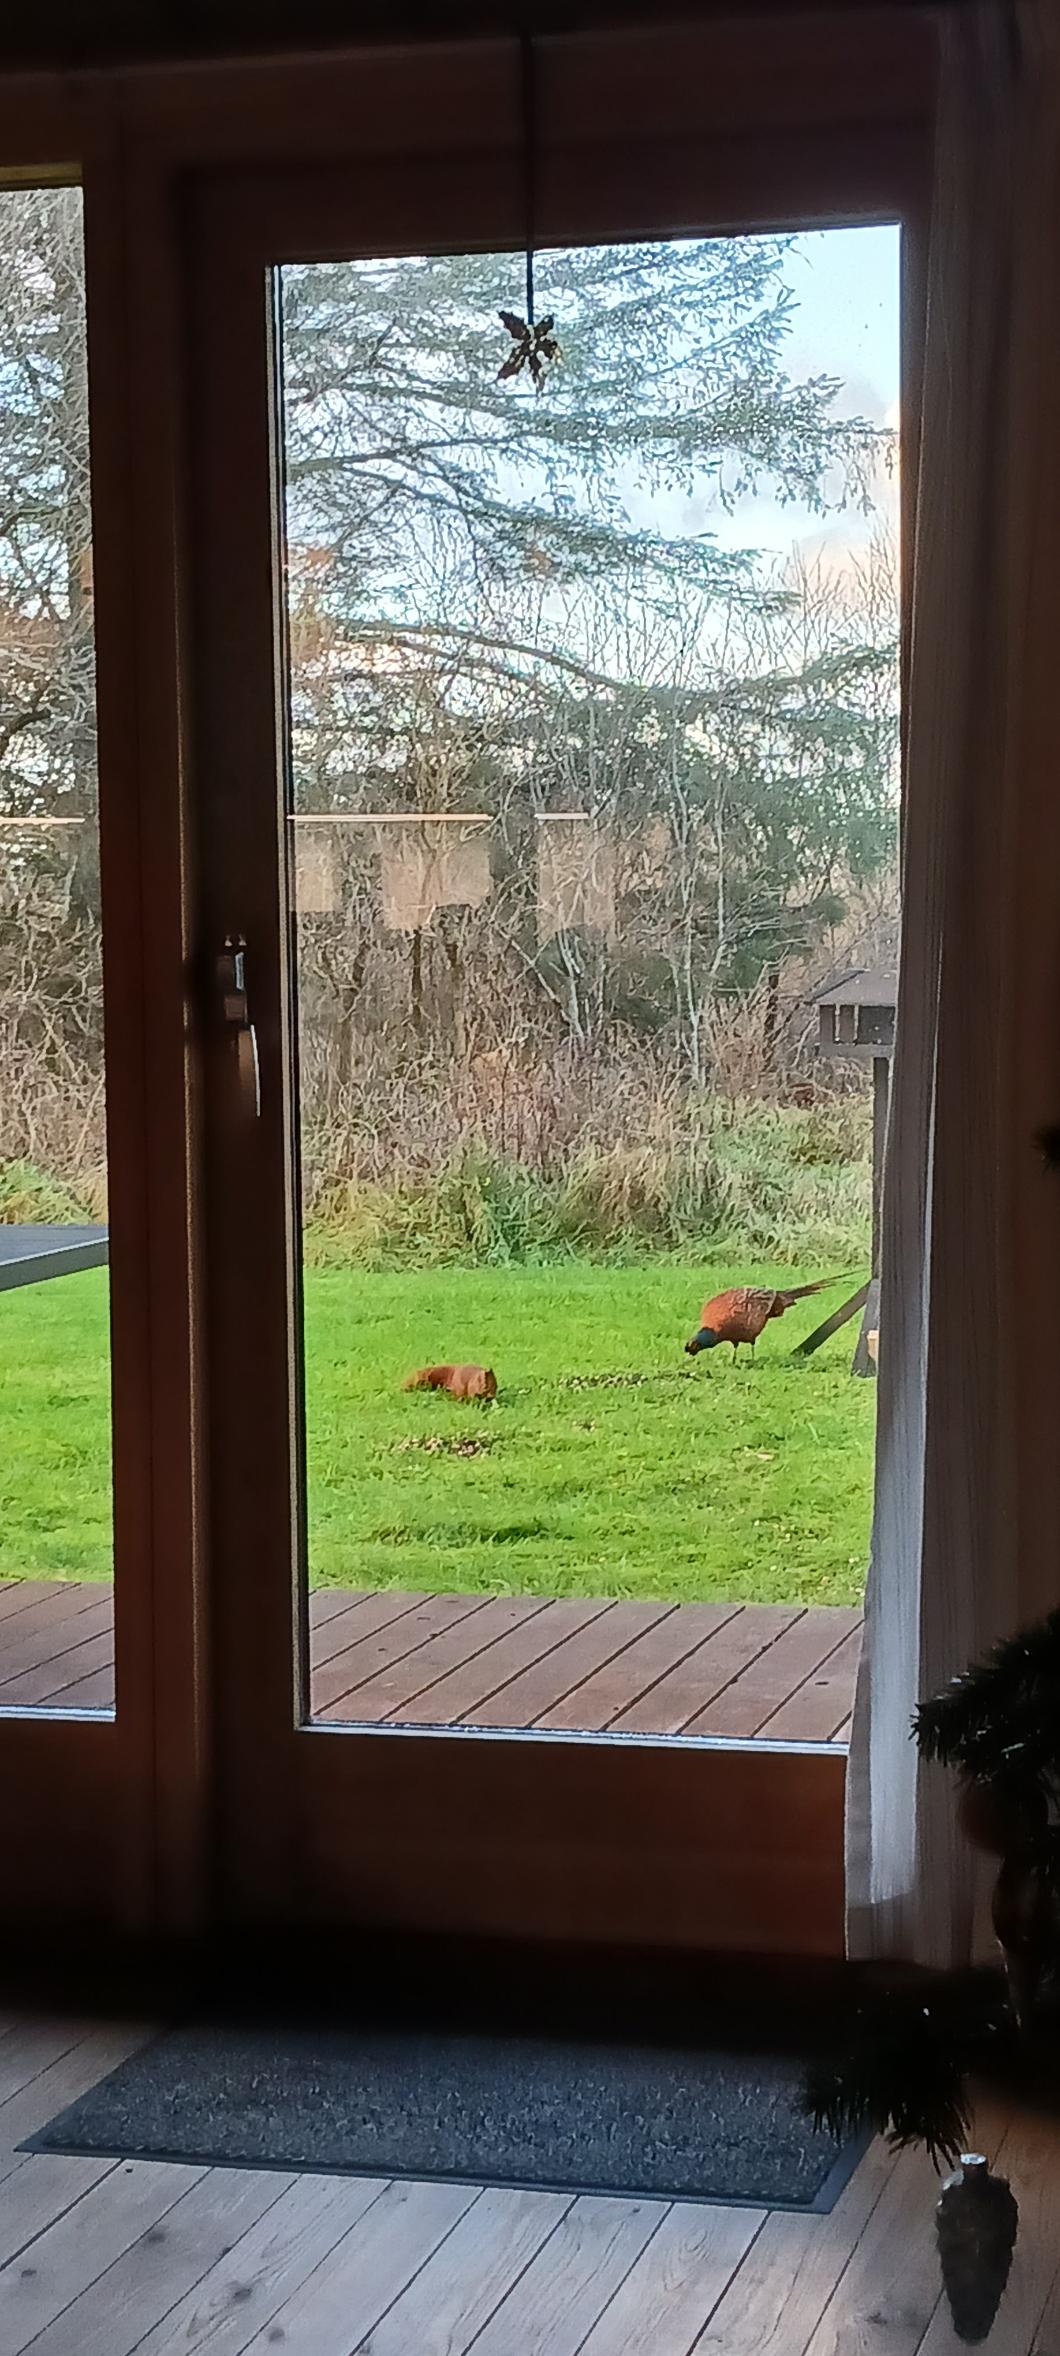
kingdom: Animalia
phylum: Chordata
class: Aves
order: Galliformes
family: Phasianidae
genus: Phasianus
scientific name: Phasianus colchicus
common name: Fasan
